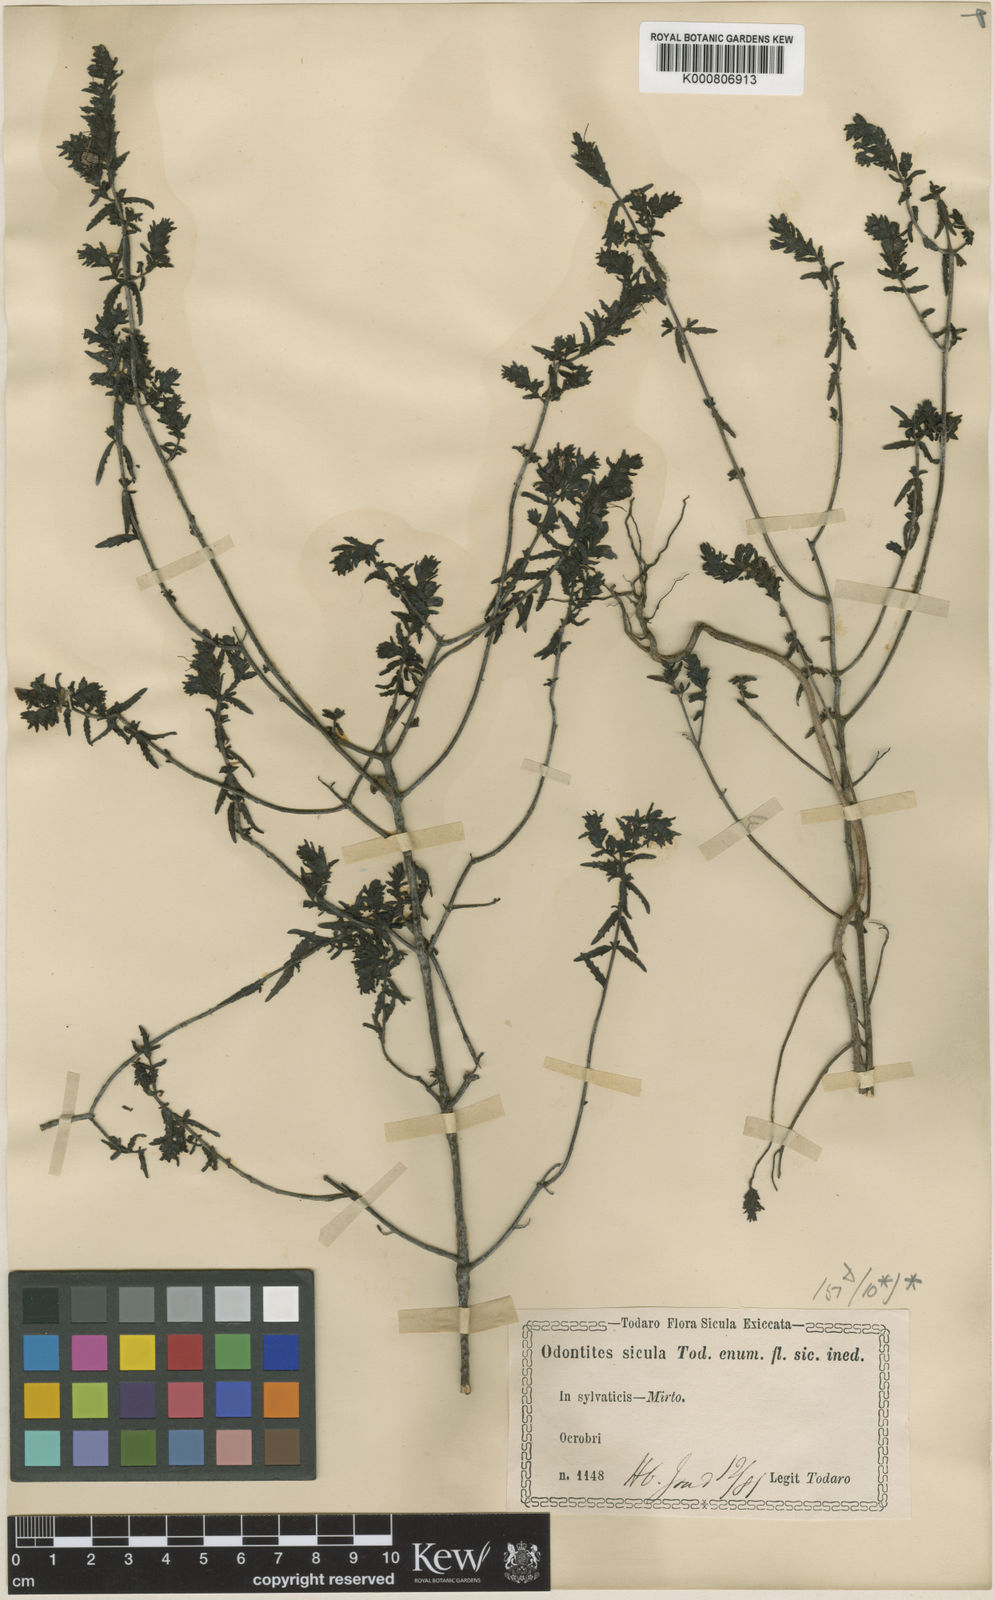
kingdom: Plantae
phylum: Tracheophyta
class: Magnoliopsida
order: Lamiales
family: Orobanchaceae
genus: Odontites
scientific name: Odontites
